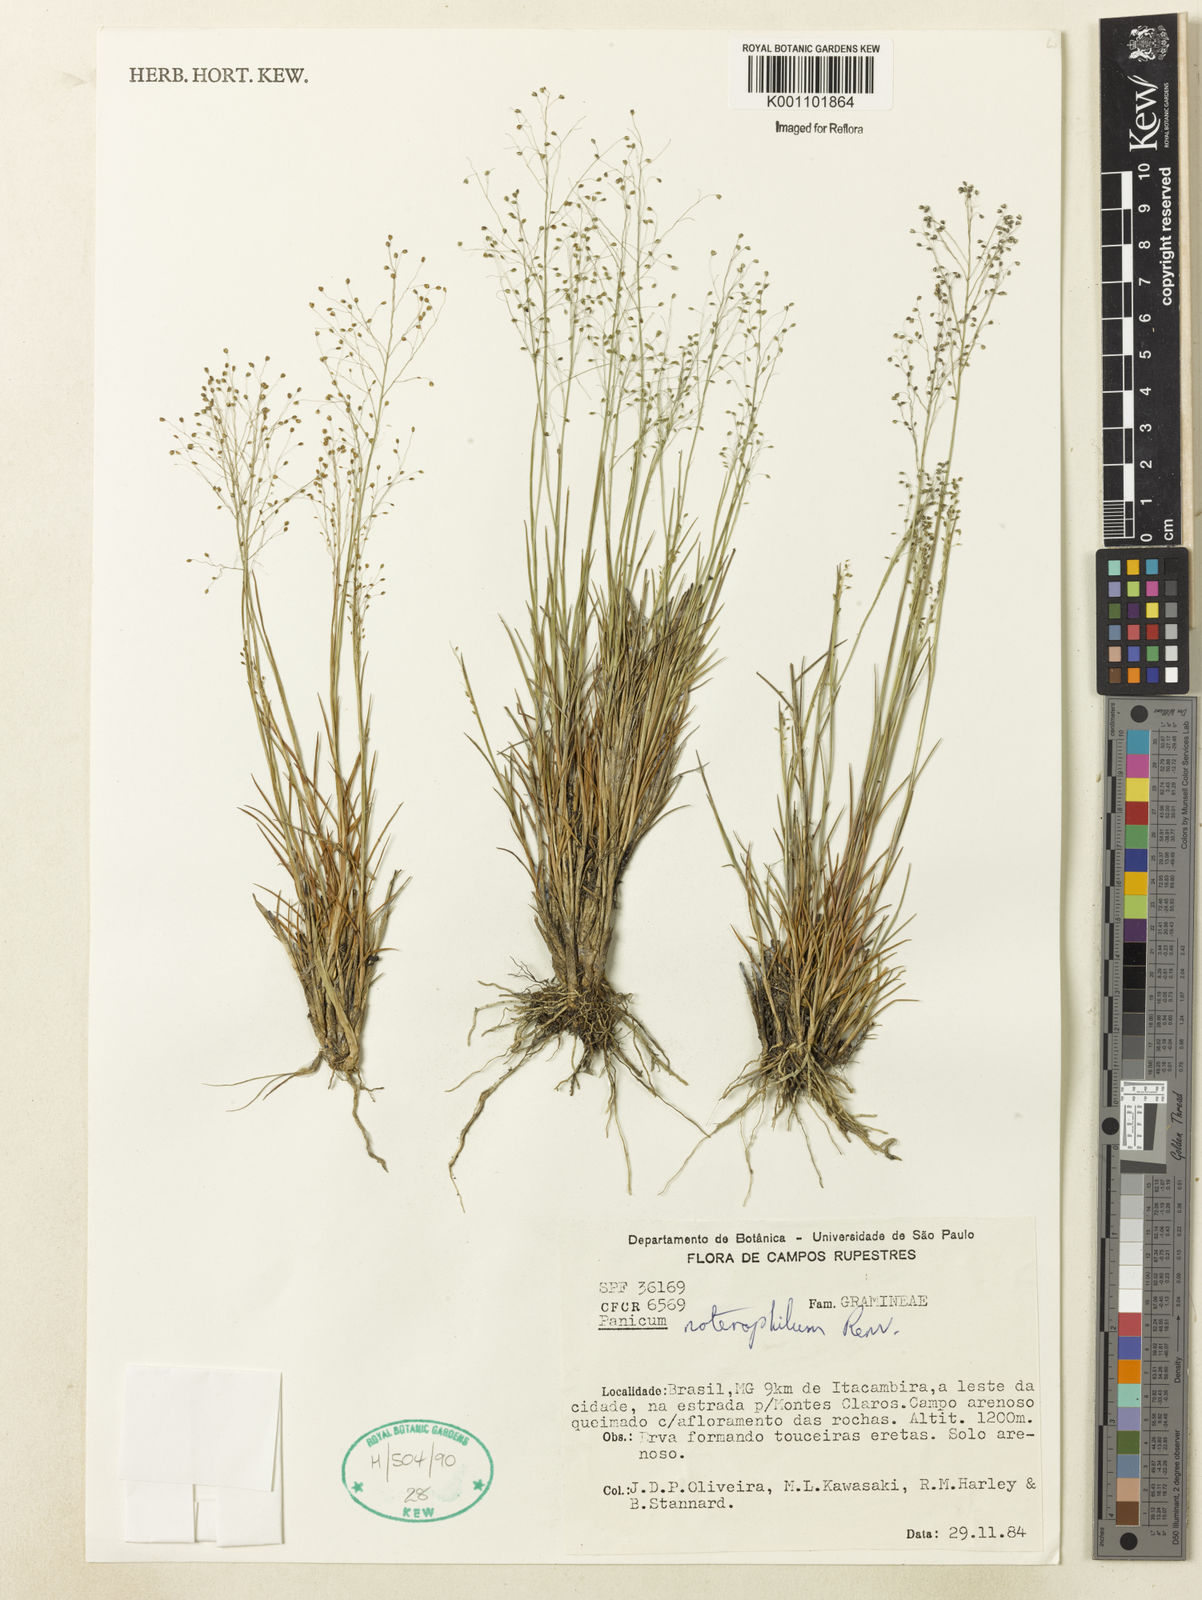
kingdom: Plantae
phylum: Tracheophyta
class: Liliopsida
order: Poales
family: Poaceae
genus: Trichanthecium
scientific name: Trichanthecium noterophilum
